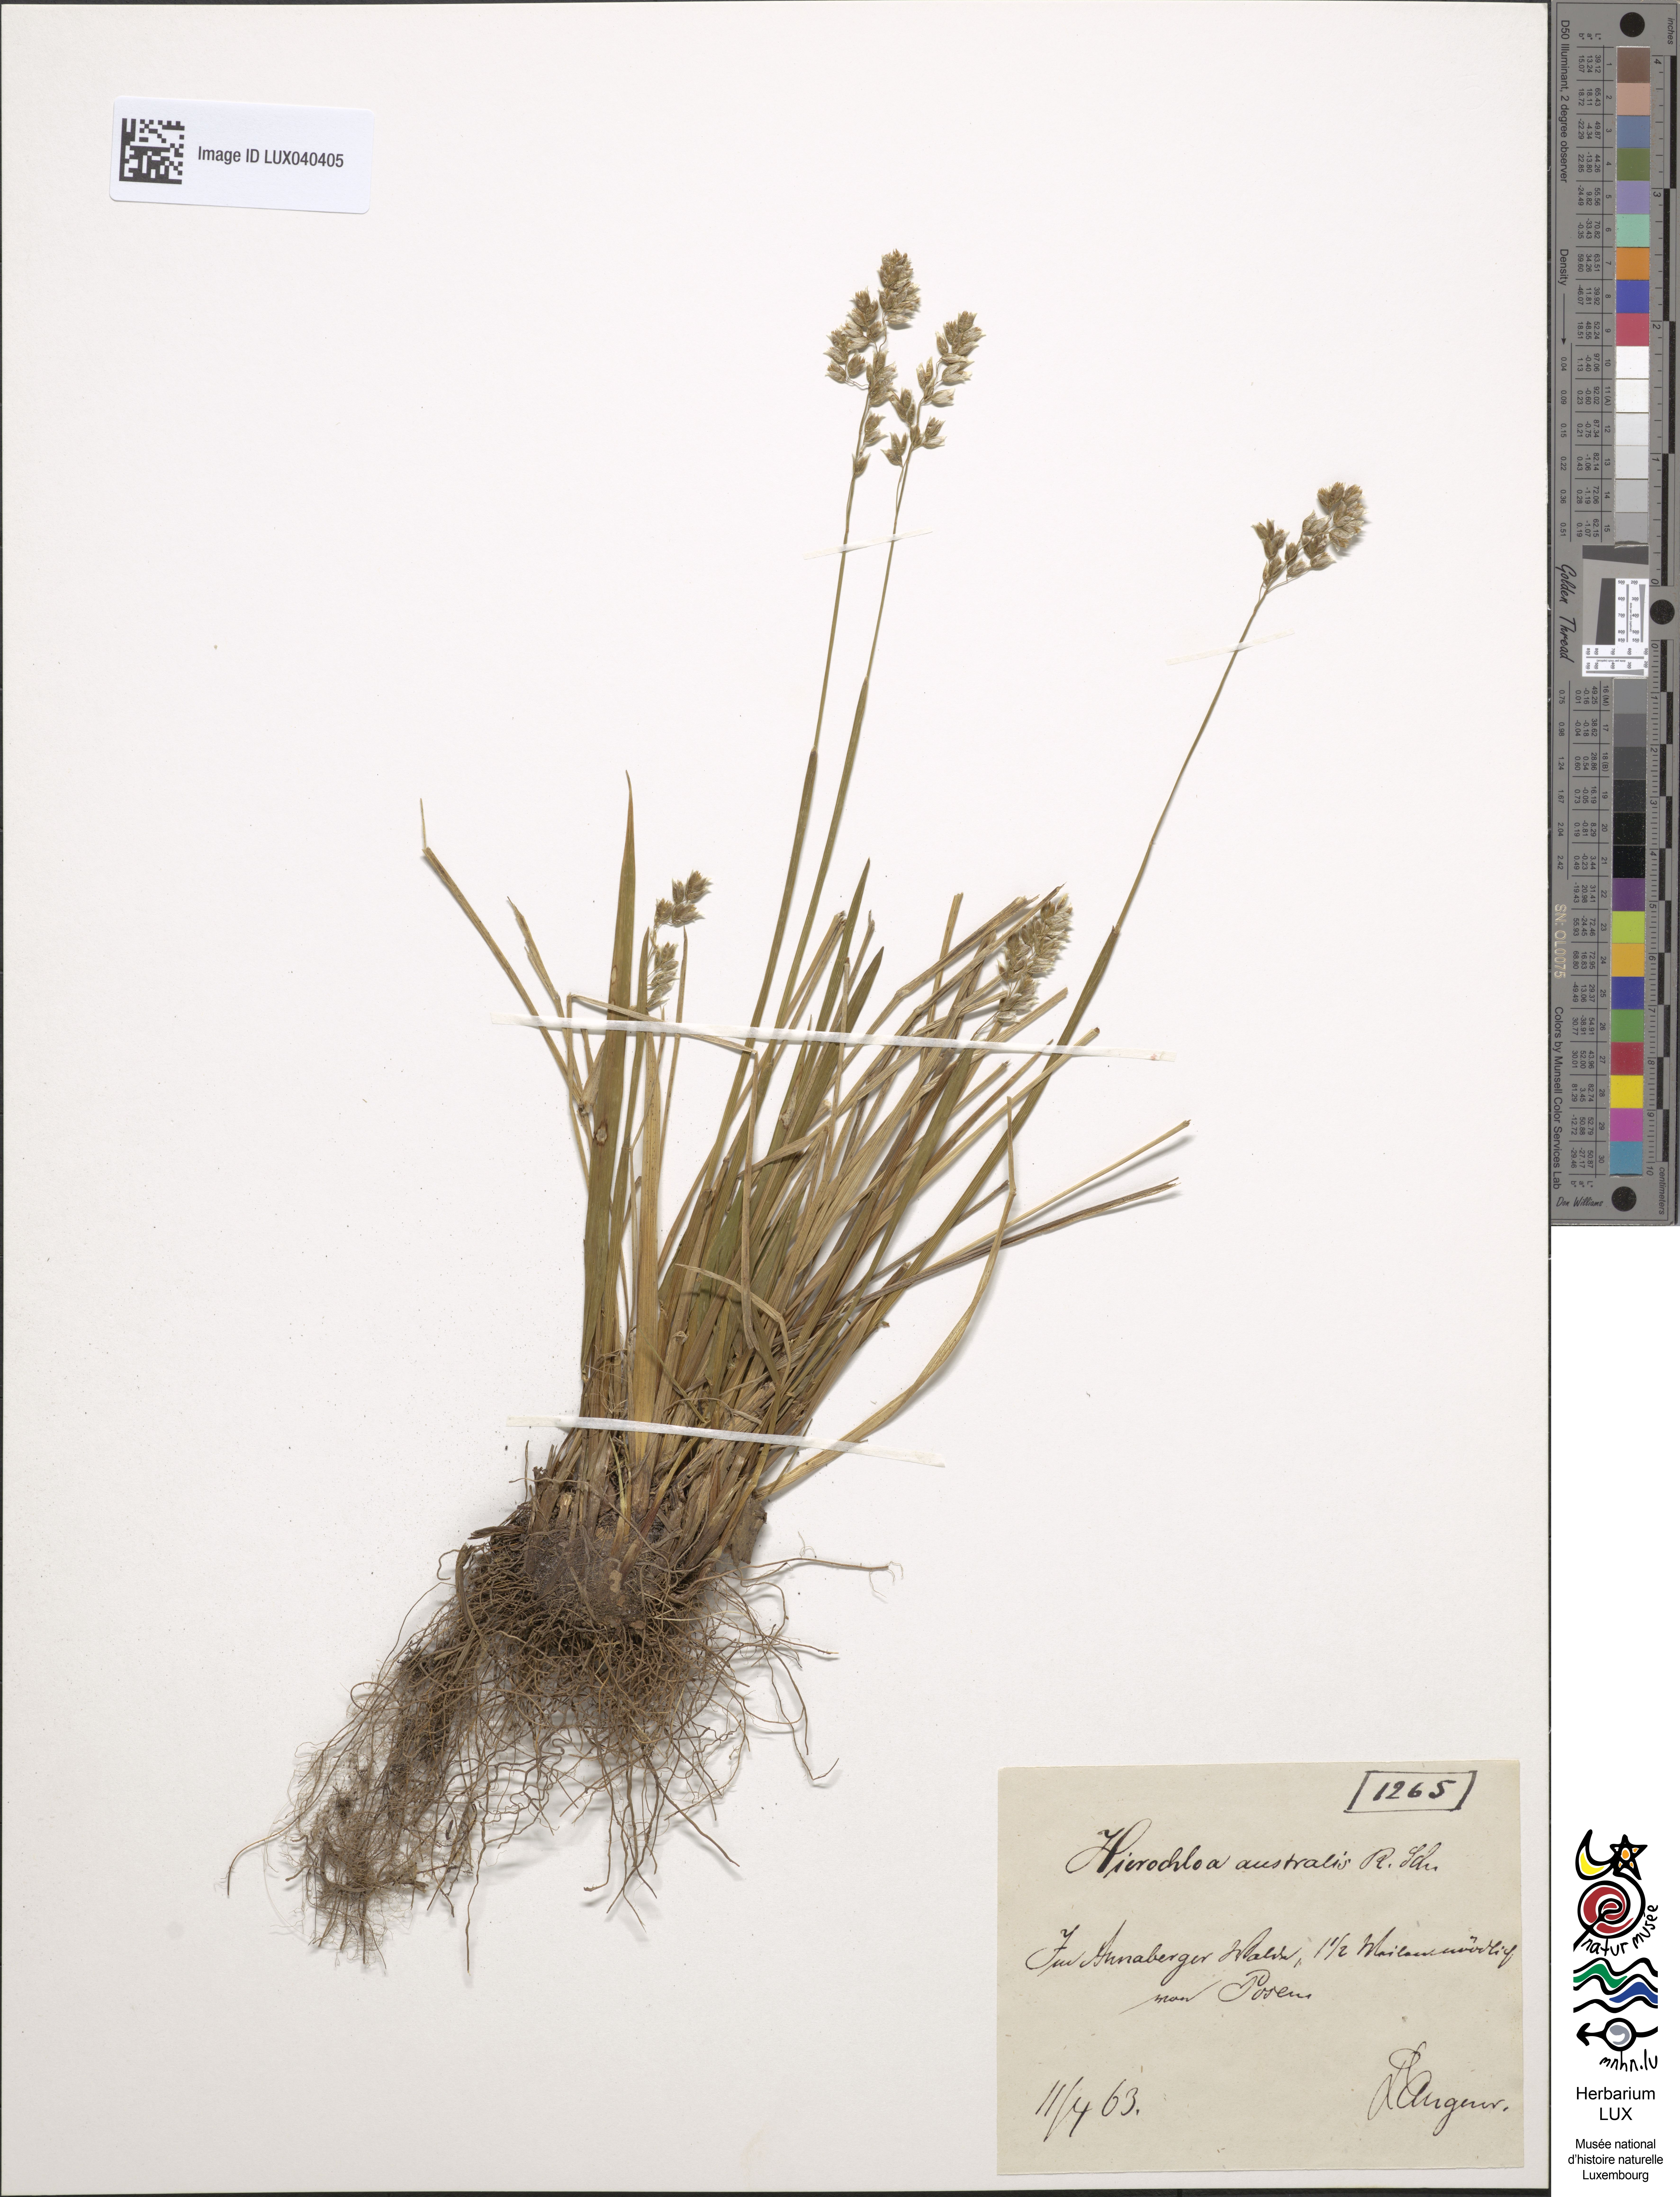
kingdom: Plantae
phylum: Tracheophyta
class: Liliopsida
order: Poales
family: Poaceae
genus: Anthoxanthum
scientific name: Anthoxanthum australe
